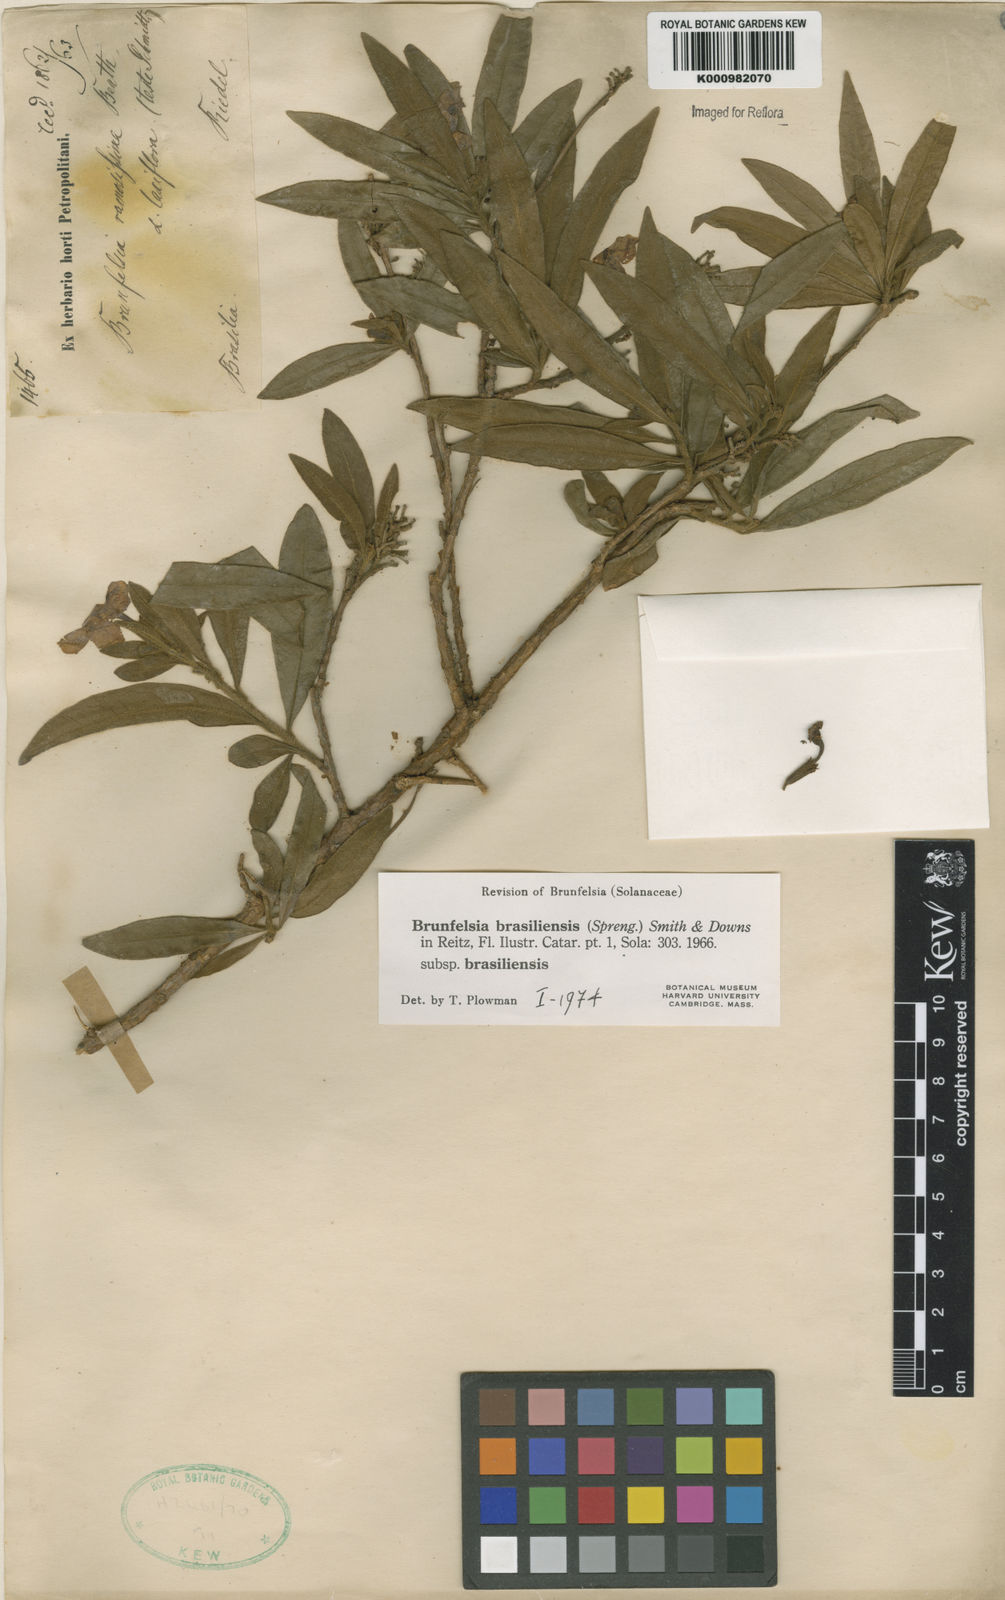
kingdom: Plantae
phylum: Tracheophyta
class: Magnoliopsida
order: Solanales
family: Solanaceae
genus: Brunfelsia
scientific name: Brunfelsia brasiliensis
